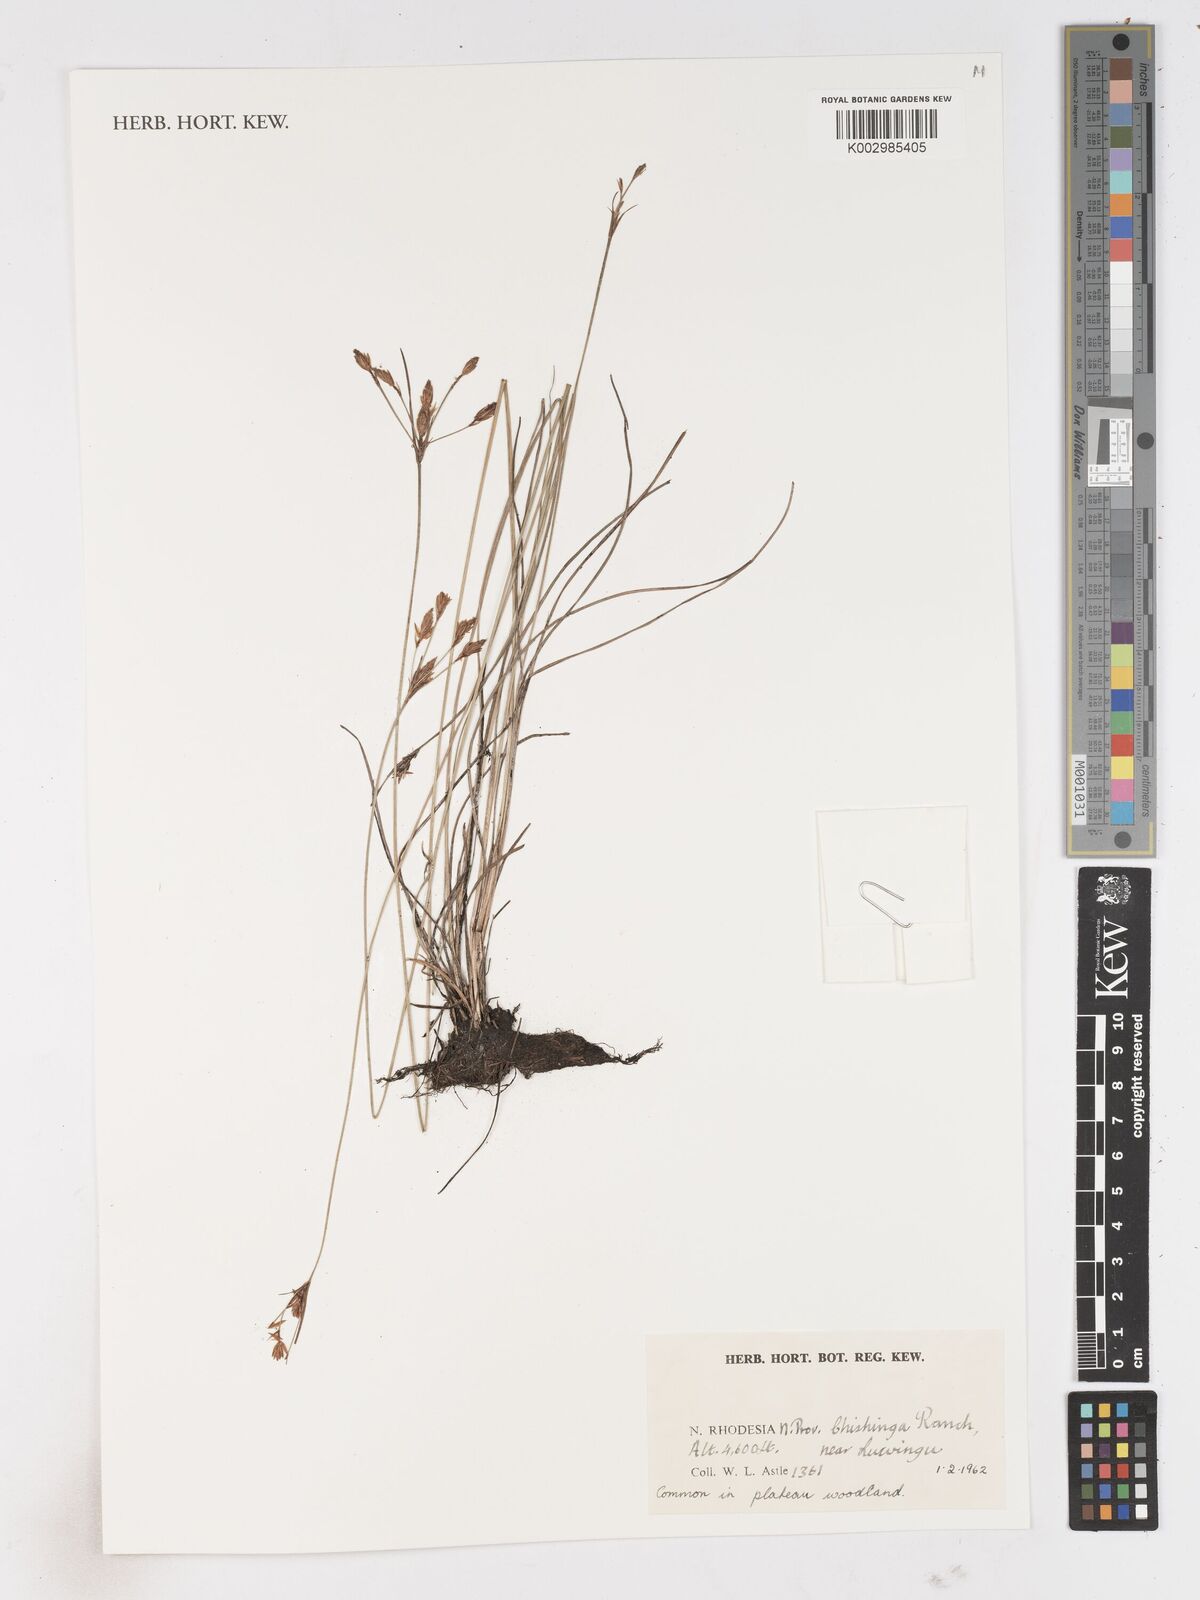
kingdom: Plantae
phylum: Tracheophyta
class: Liliopsida
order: Poales
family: Cyperaceae
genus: Fimbristylis
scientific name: Fimbristylis
